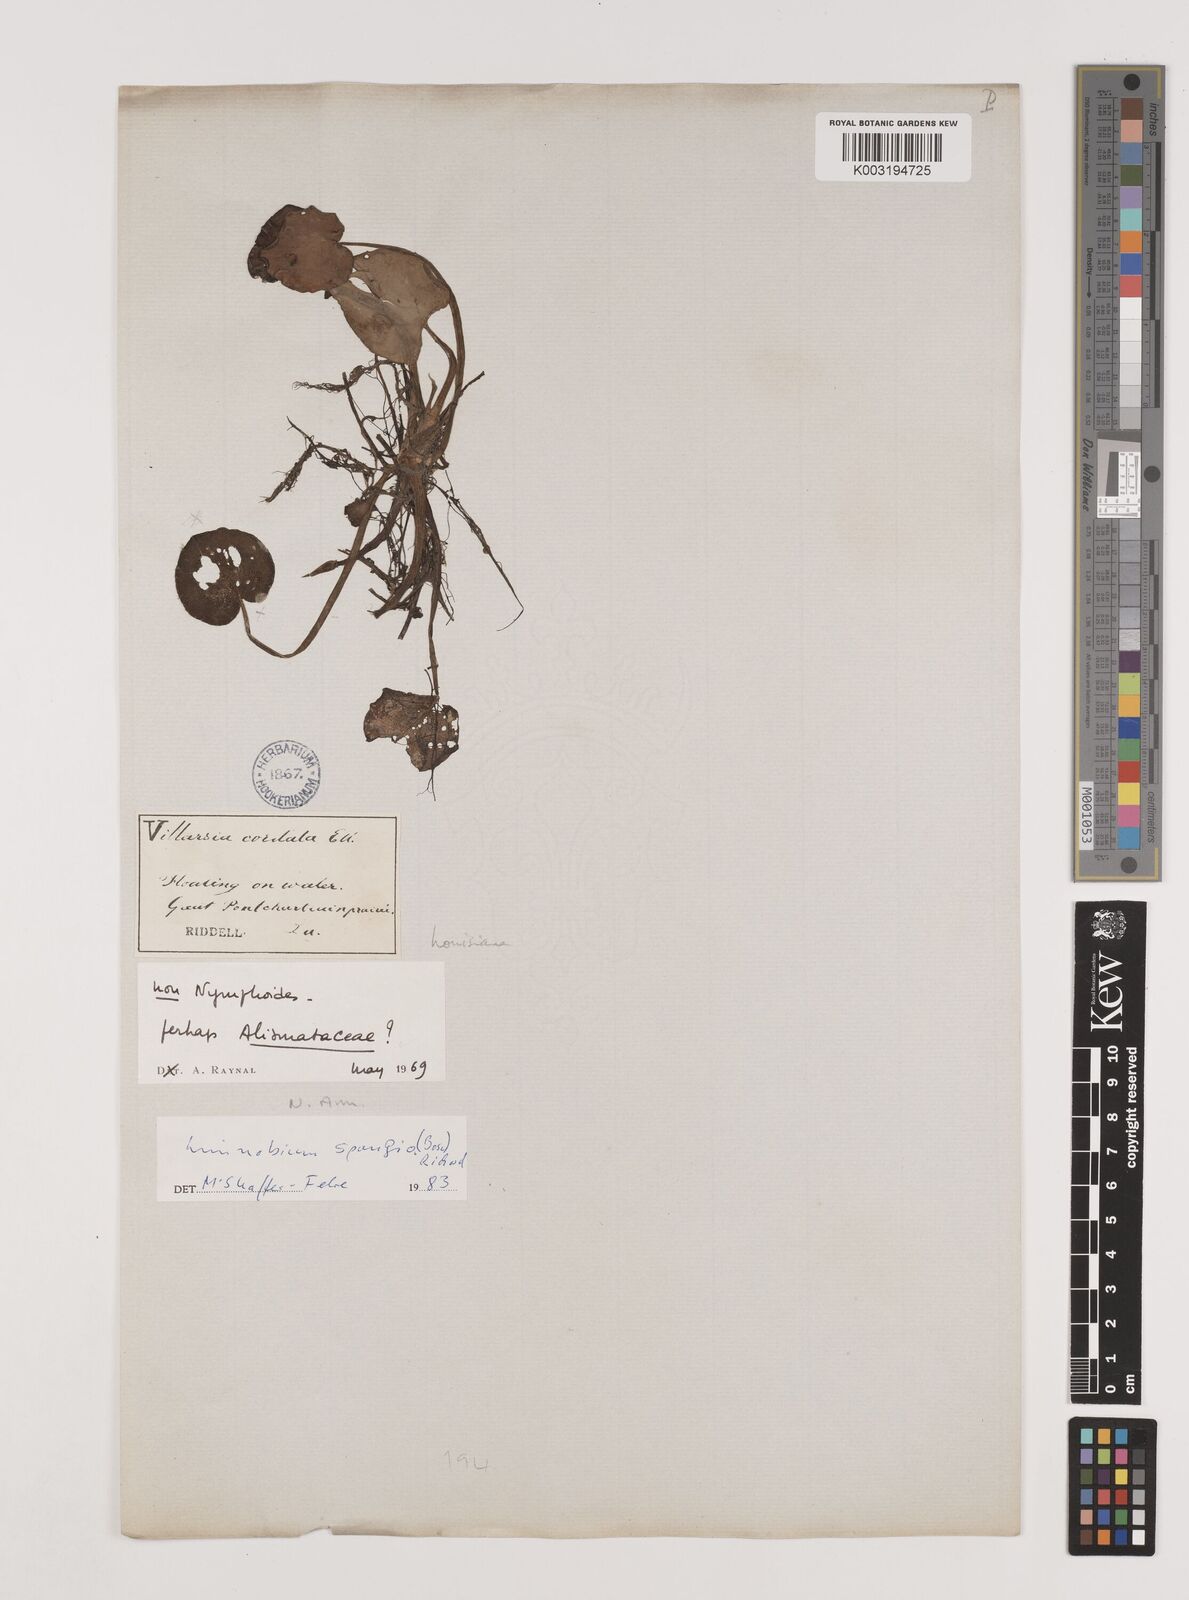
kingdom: Plantae
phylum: Tracheophyta
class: Liliopsida
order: Alismatales
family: Hydrocharitaceae
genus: Hydrocharis
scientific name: Hydrocharis spongia
